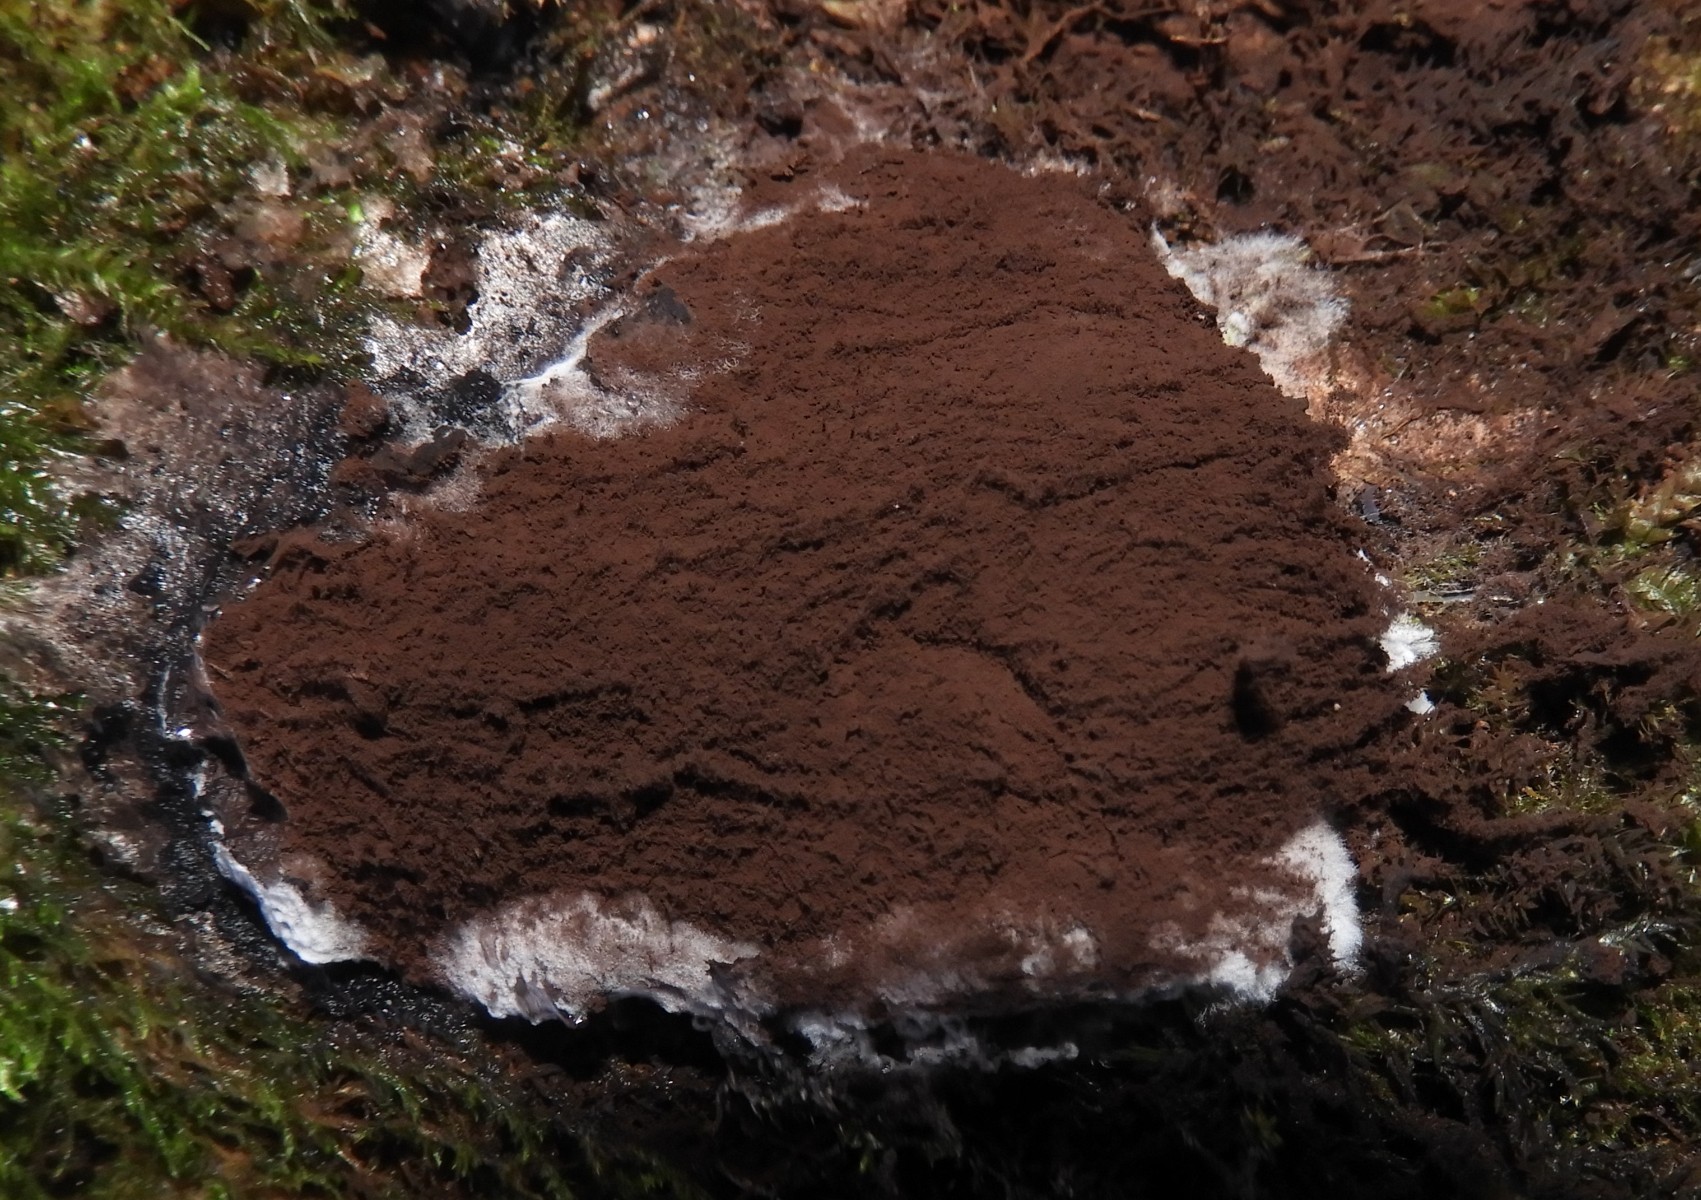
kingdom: Protozoa
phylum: Mycetozoa
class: Myxomycetes
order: Cribrariales
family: Tubiferaceae
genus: Reticularia
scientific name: Reticularia lycoperdon
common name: skinnende støvpude
